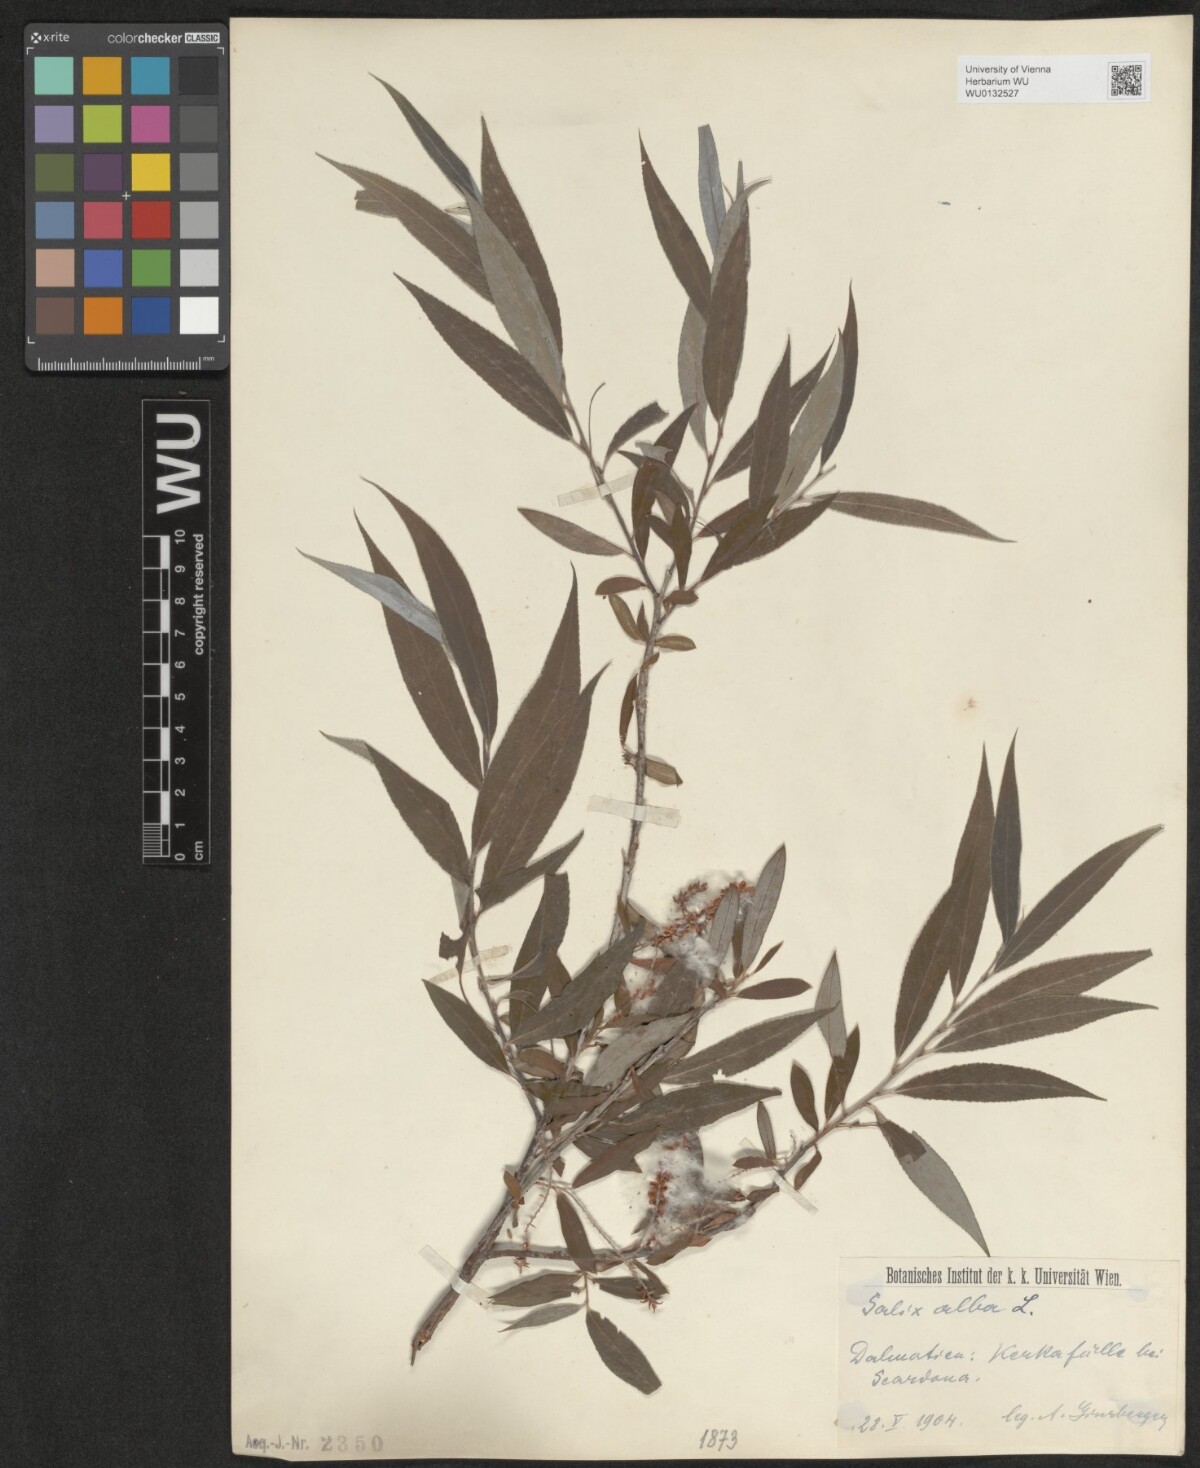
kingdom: Plantae
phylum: Tracheophyta
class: Magnoliopsida
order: Malpighiales
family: Salicaceae
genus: Salix
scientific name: Salix alba
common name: White willow
